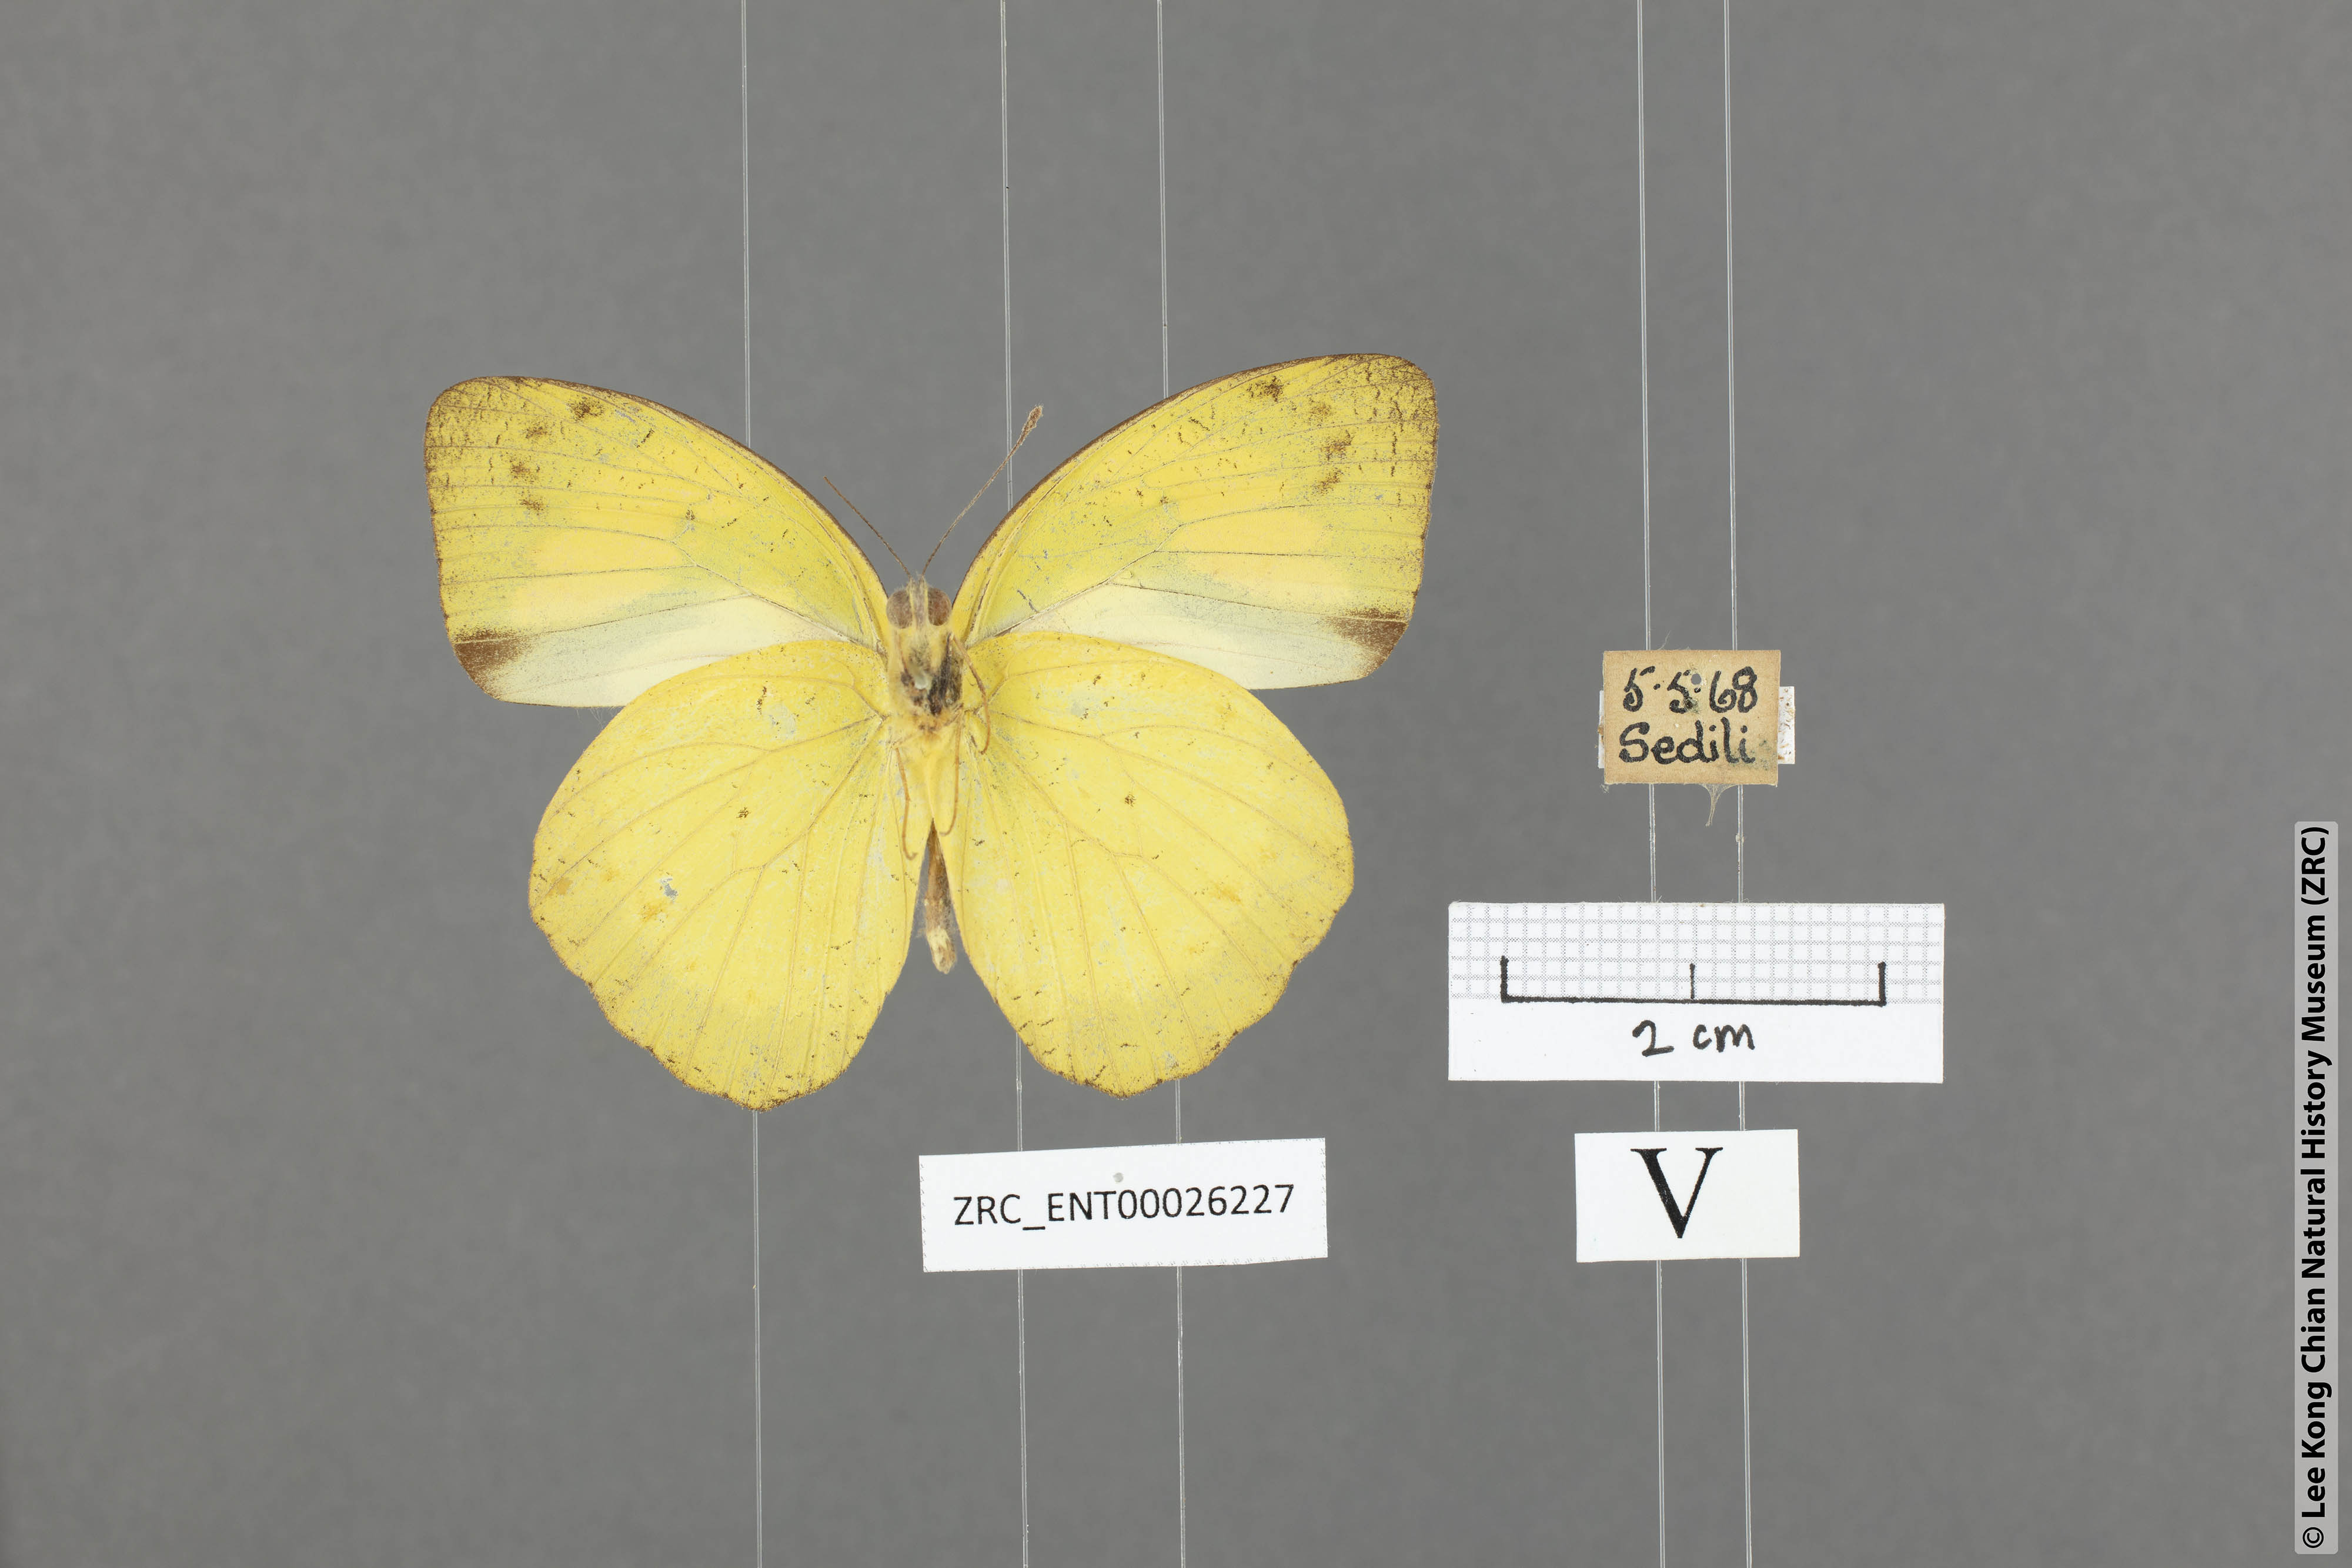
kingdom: Animalia
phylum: Arthropoda
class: Insecta
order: Lepidoptera
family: Pieridae
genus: Ixias
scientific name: Ixias pyrene
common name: Yellow orange tip
